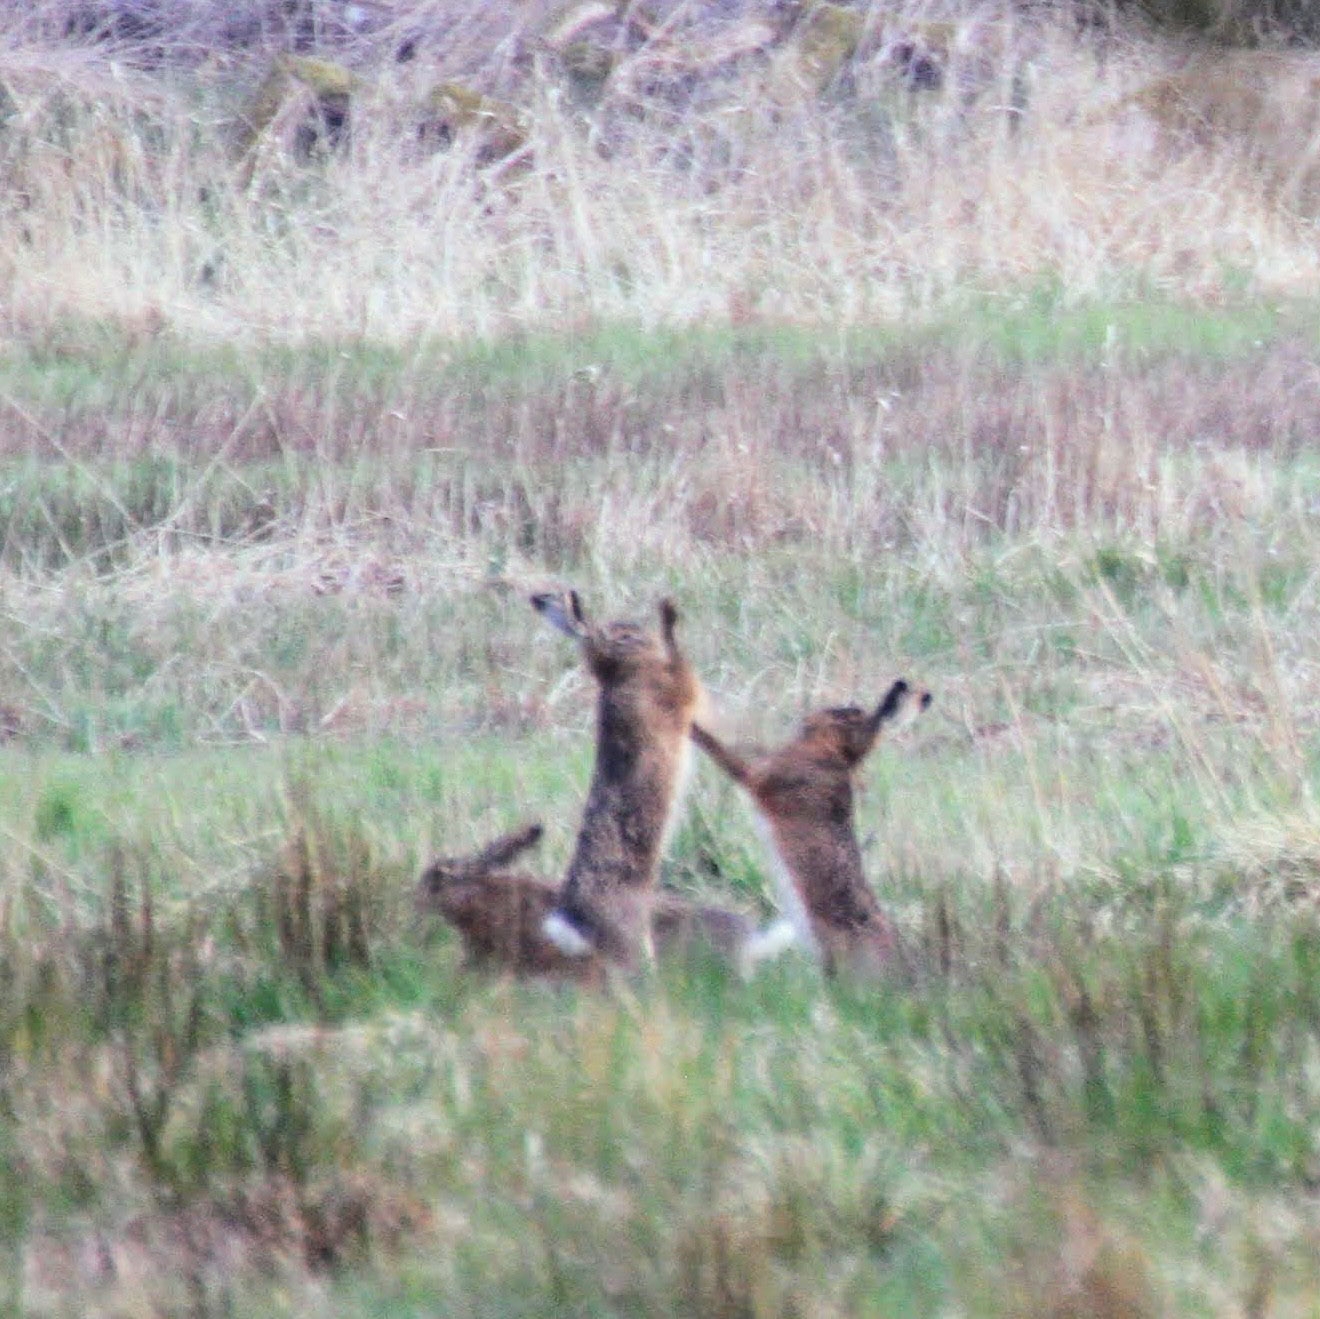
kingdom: Animalia
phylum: Chordata
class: Mammalia
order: Lagomorpha
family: Leporidae
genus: Lepus
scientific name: Lepus europaeus
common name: Hare
